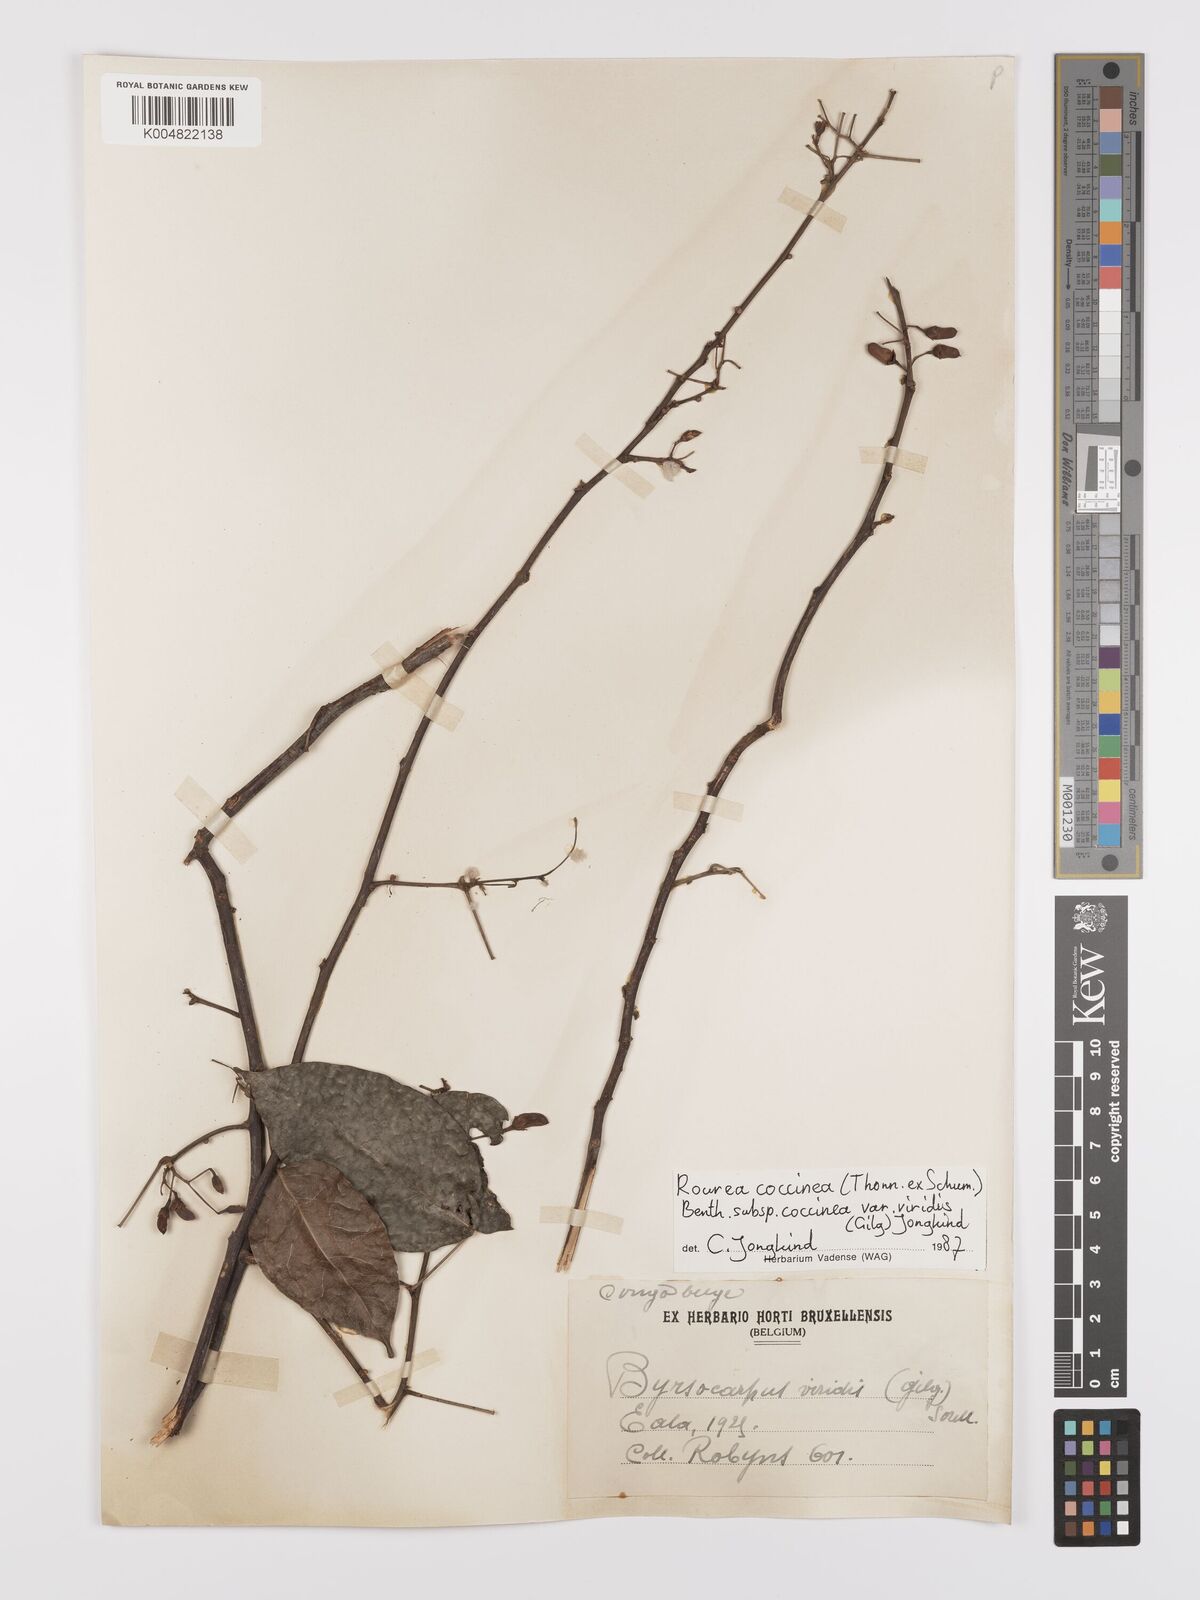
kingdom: Plantae
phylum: Tracheophyta
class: Magnoliopsida
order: Oxalidales
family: Connaraceae
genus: Rourea
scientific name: Rourea coccinea
